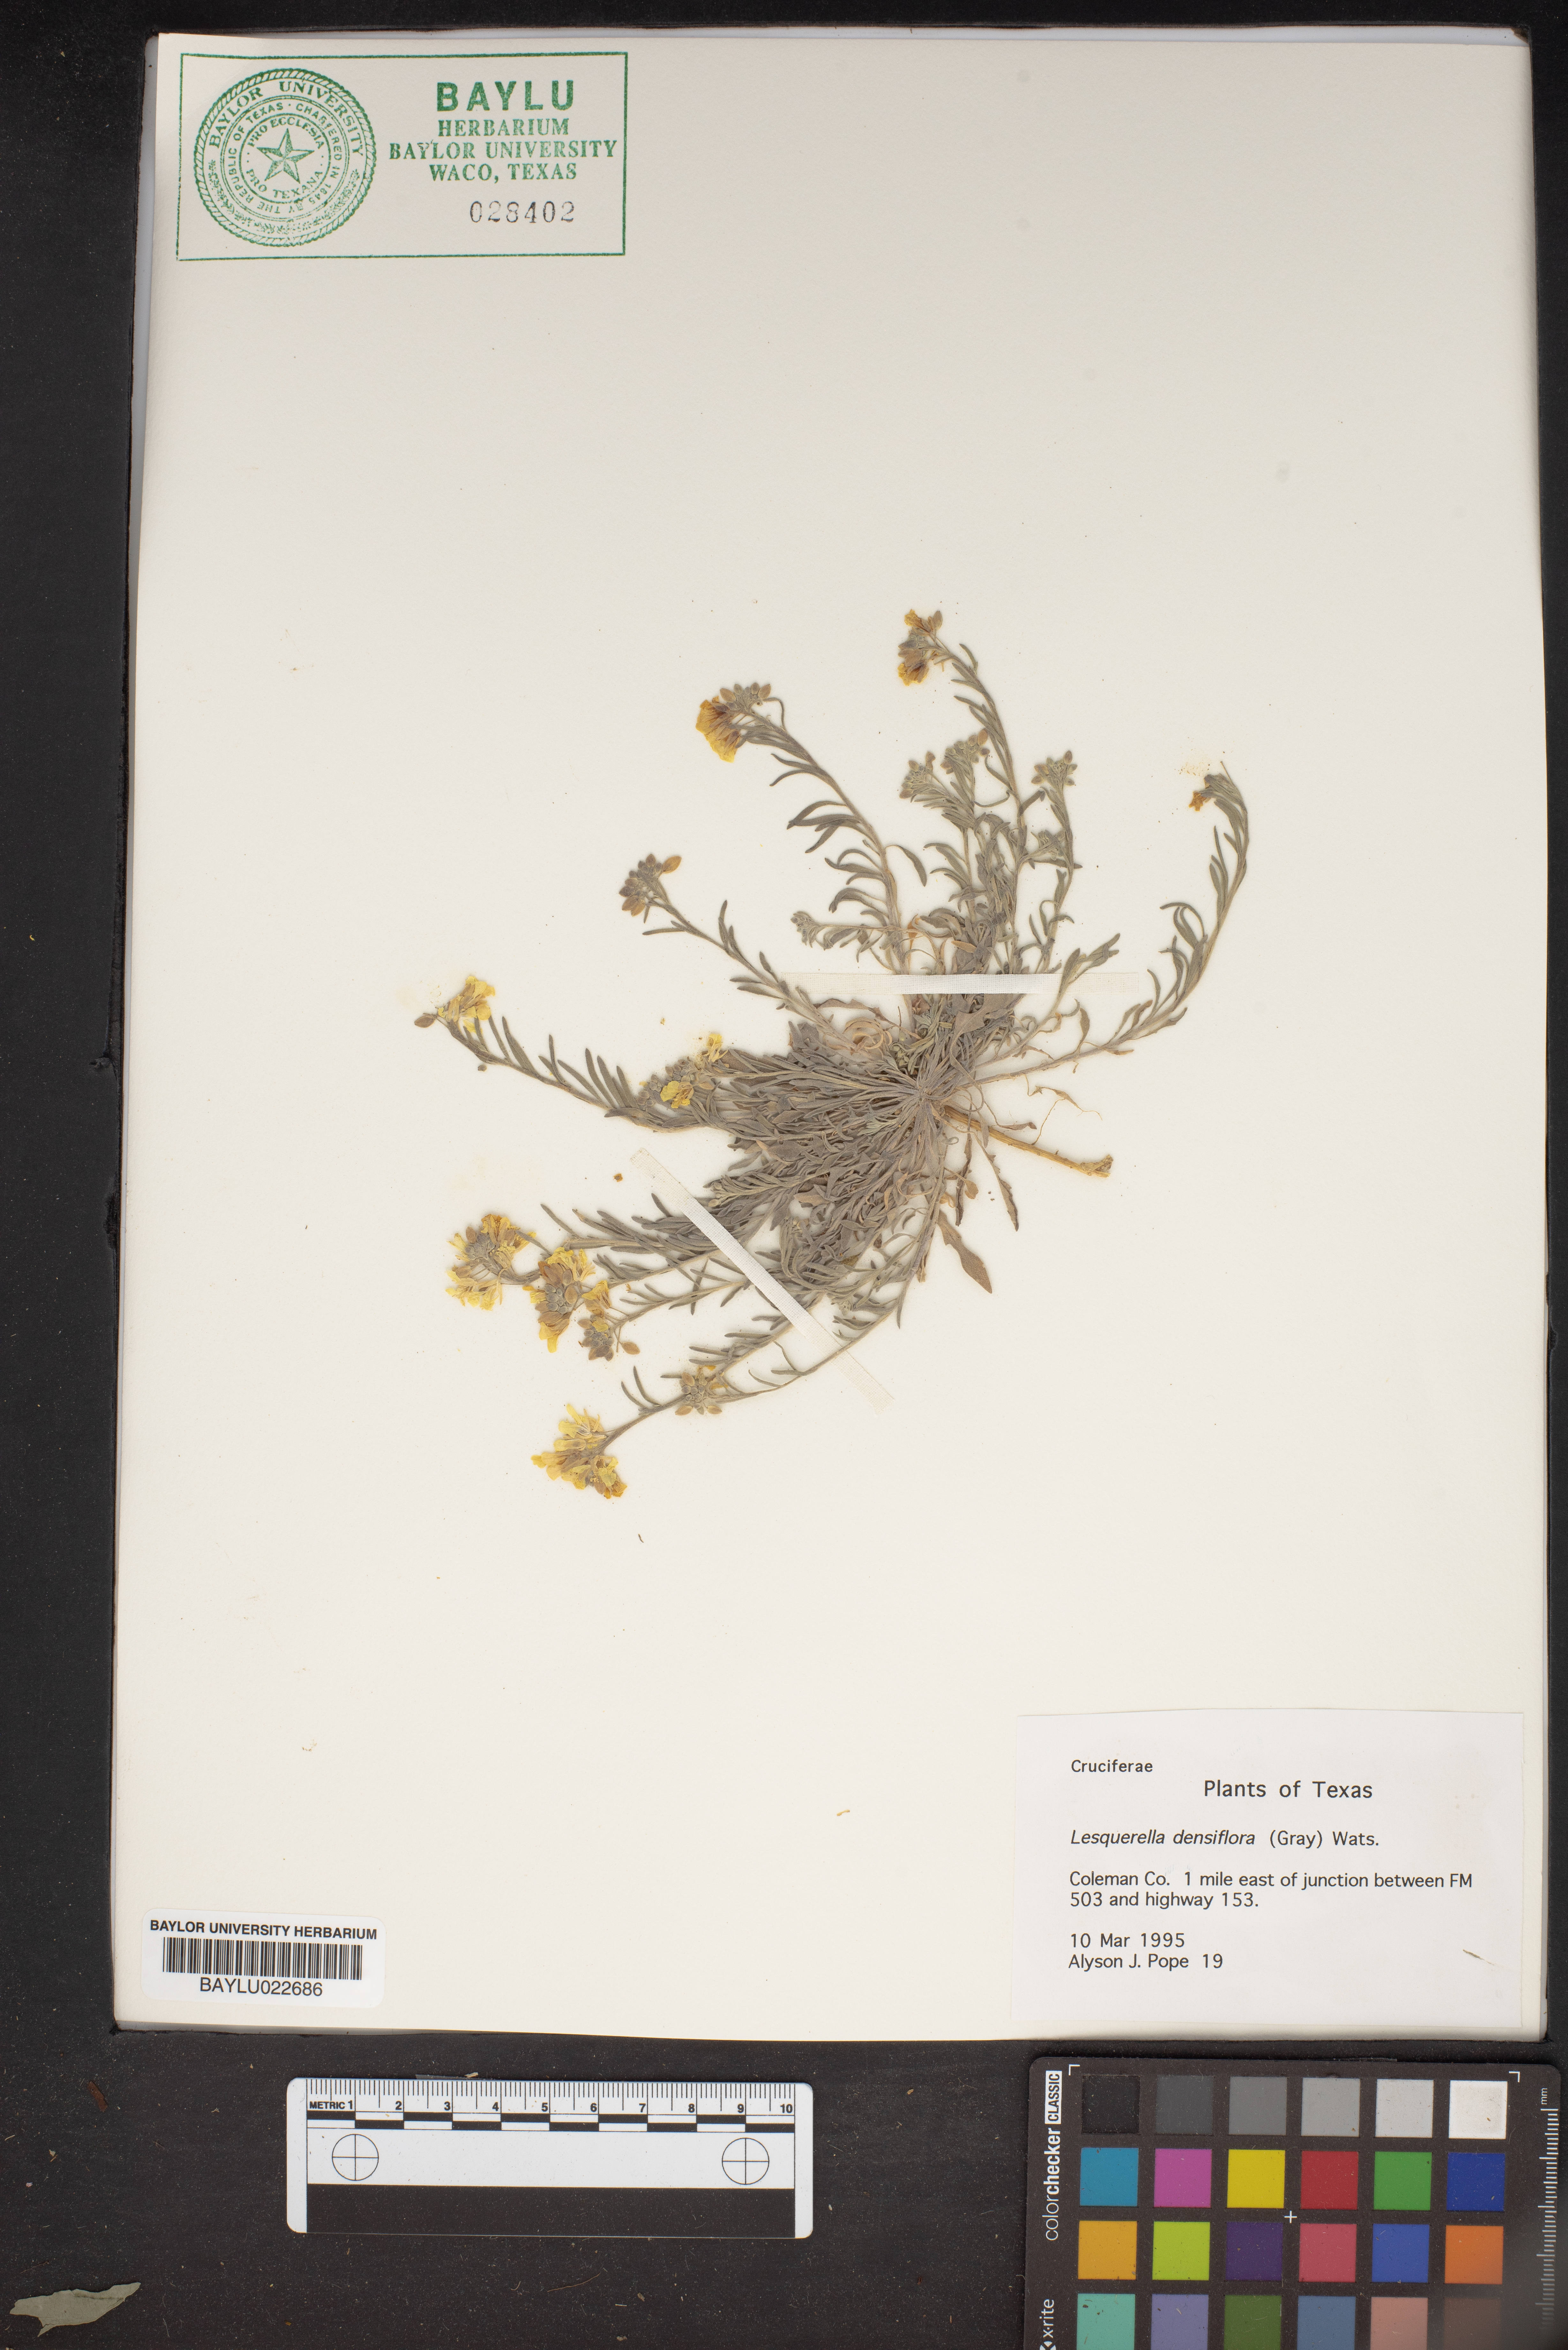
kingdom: Plantae
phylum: Tracheophyta
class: Magnoliopsida
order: Brassicales
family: Brassicaceae
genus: Physaria
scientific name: Physaria densiflora
